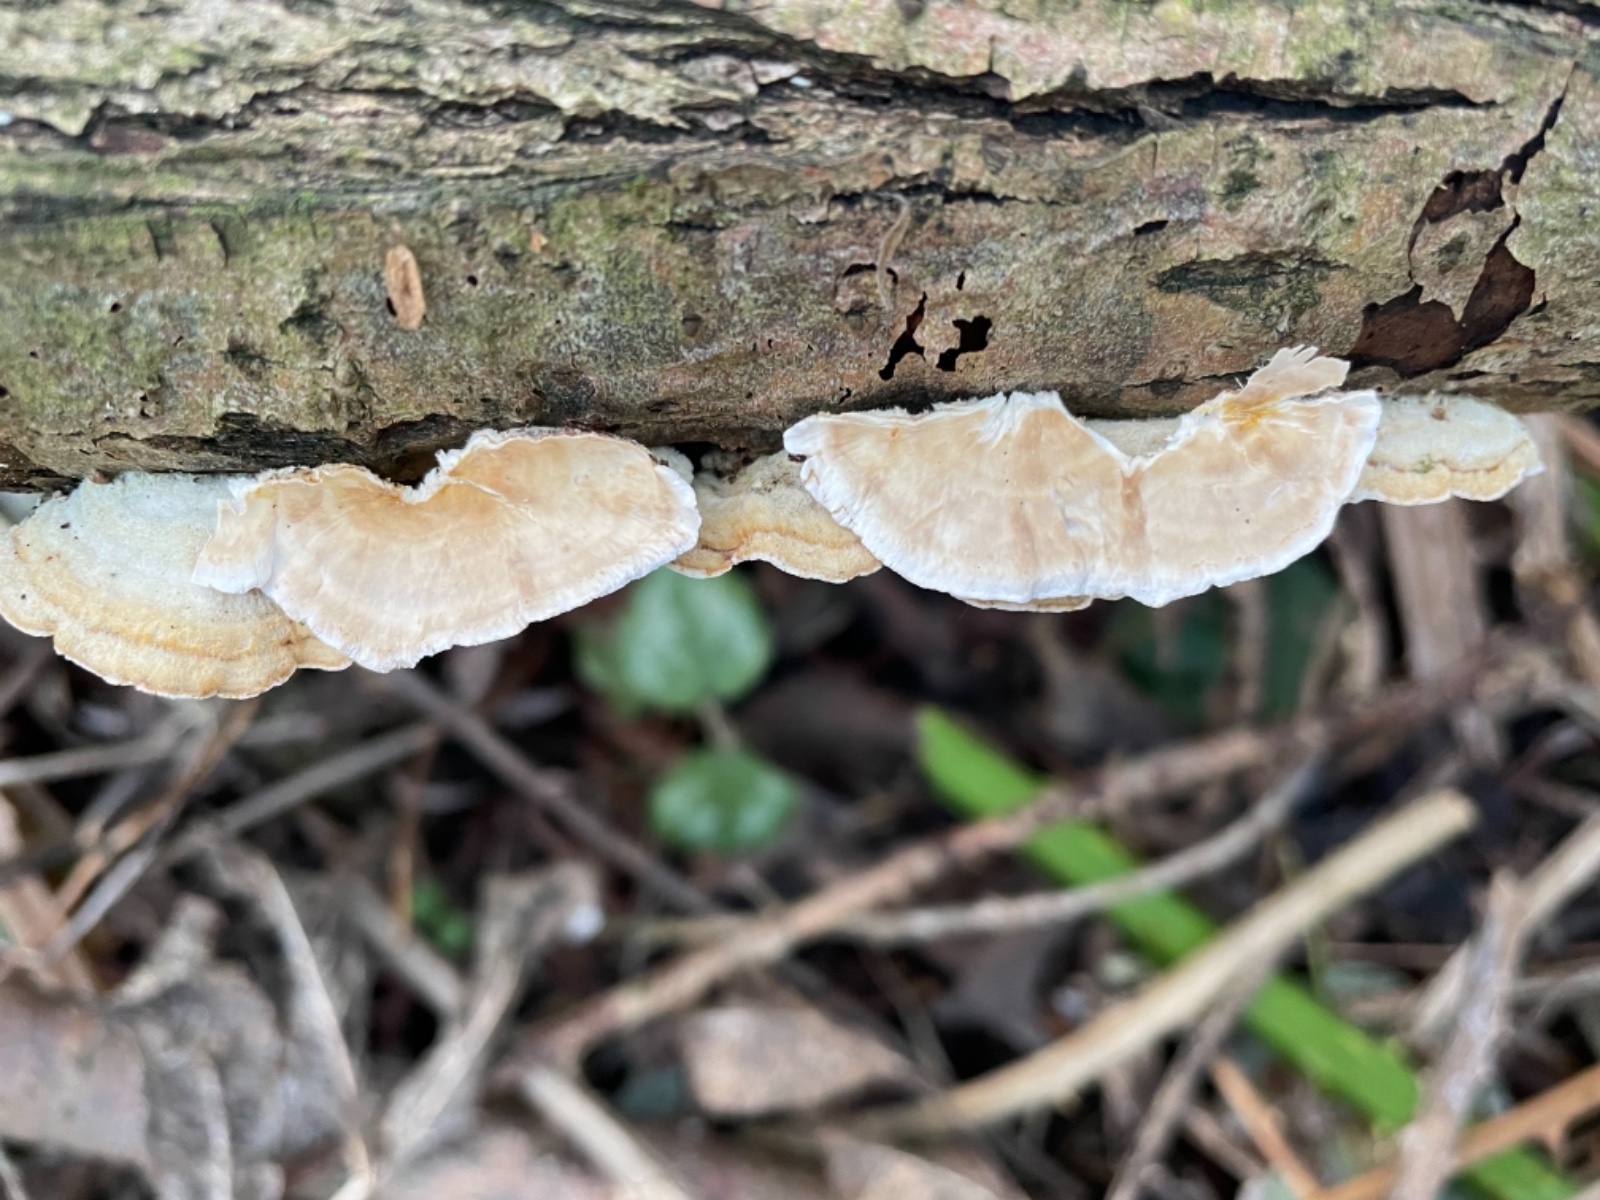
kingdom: Fungi
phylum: Basidiomycota
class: Agaricomycetes
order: Russulales
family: Stereaceae
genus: Stereum
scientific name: Stereum subtomentosum
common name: smuk lædersvamp
